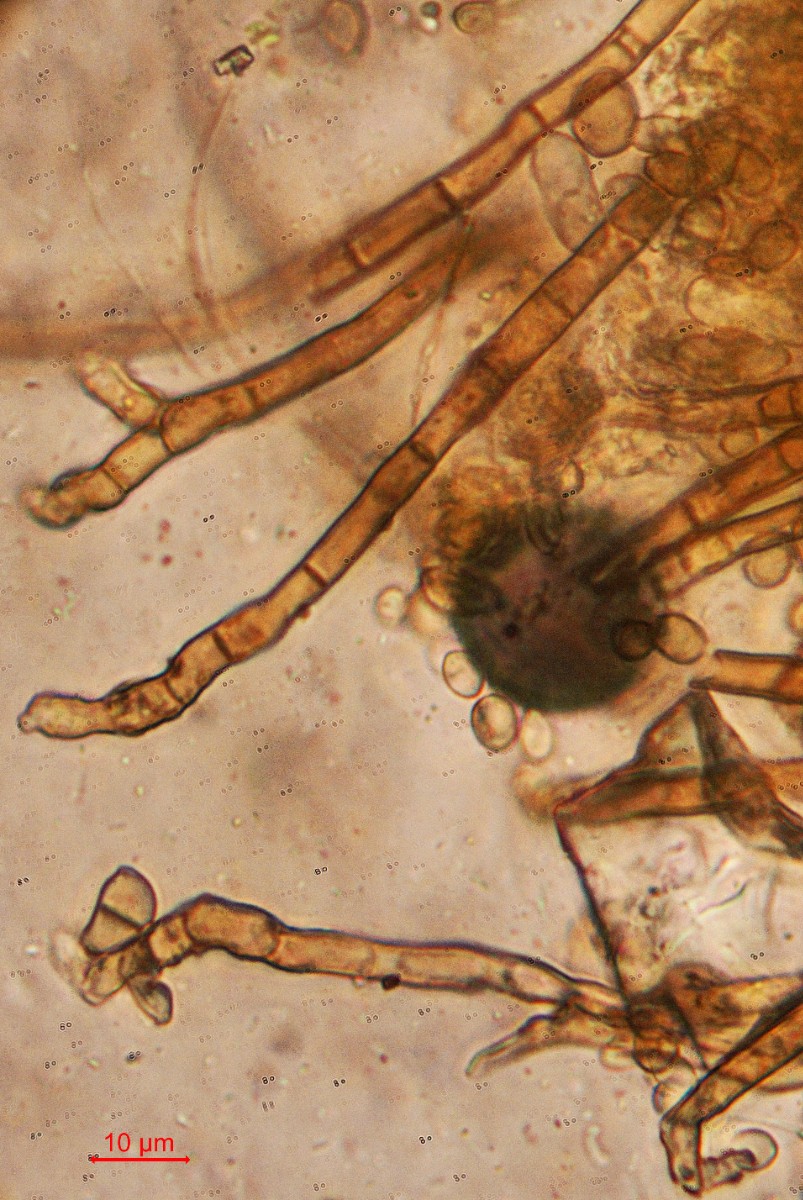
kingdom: Fungi
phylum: Ascomycota
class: Dothideomycetes
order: Capnodiales
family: Cladosporiaceae
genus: Cladosporium
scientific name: Cladosporium
